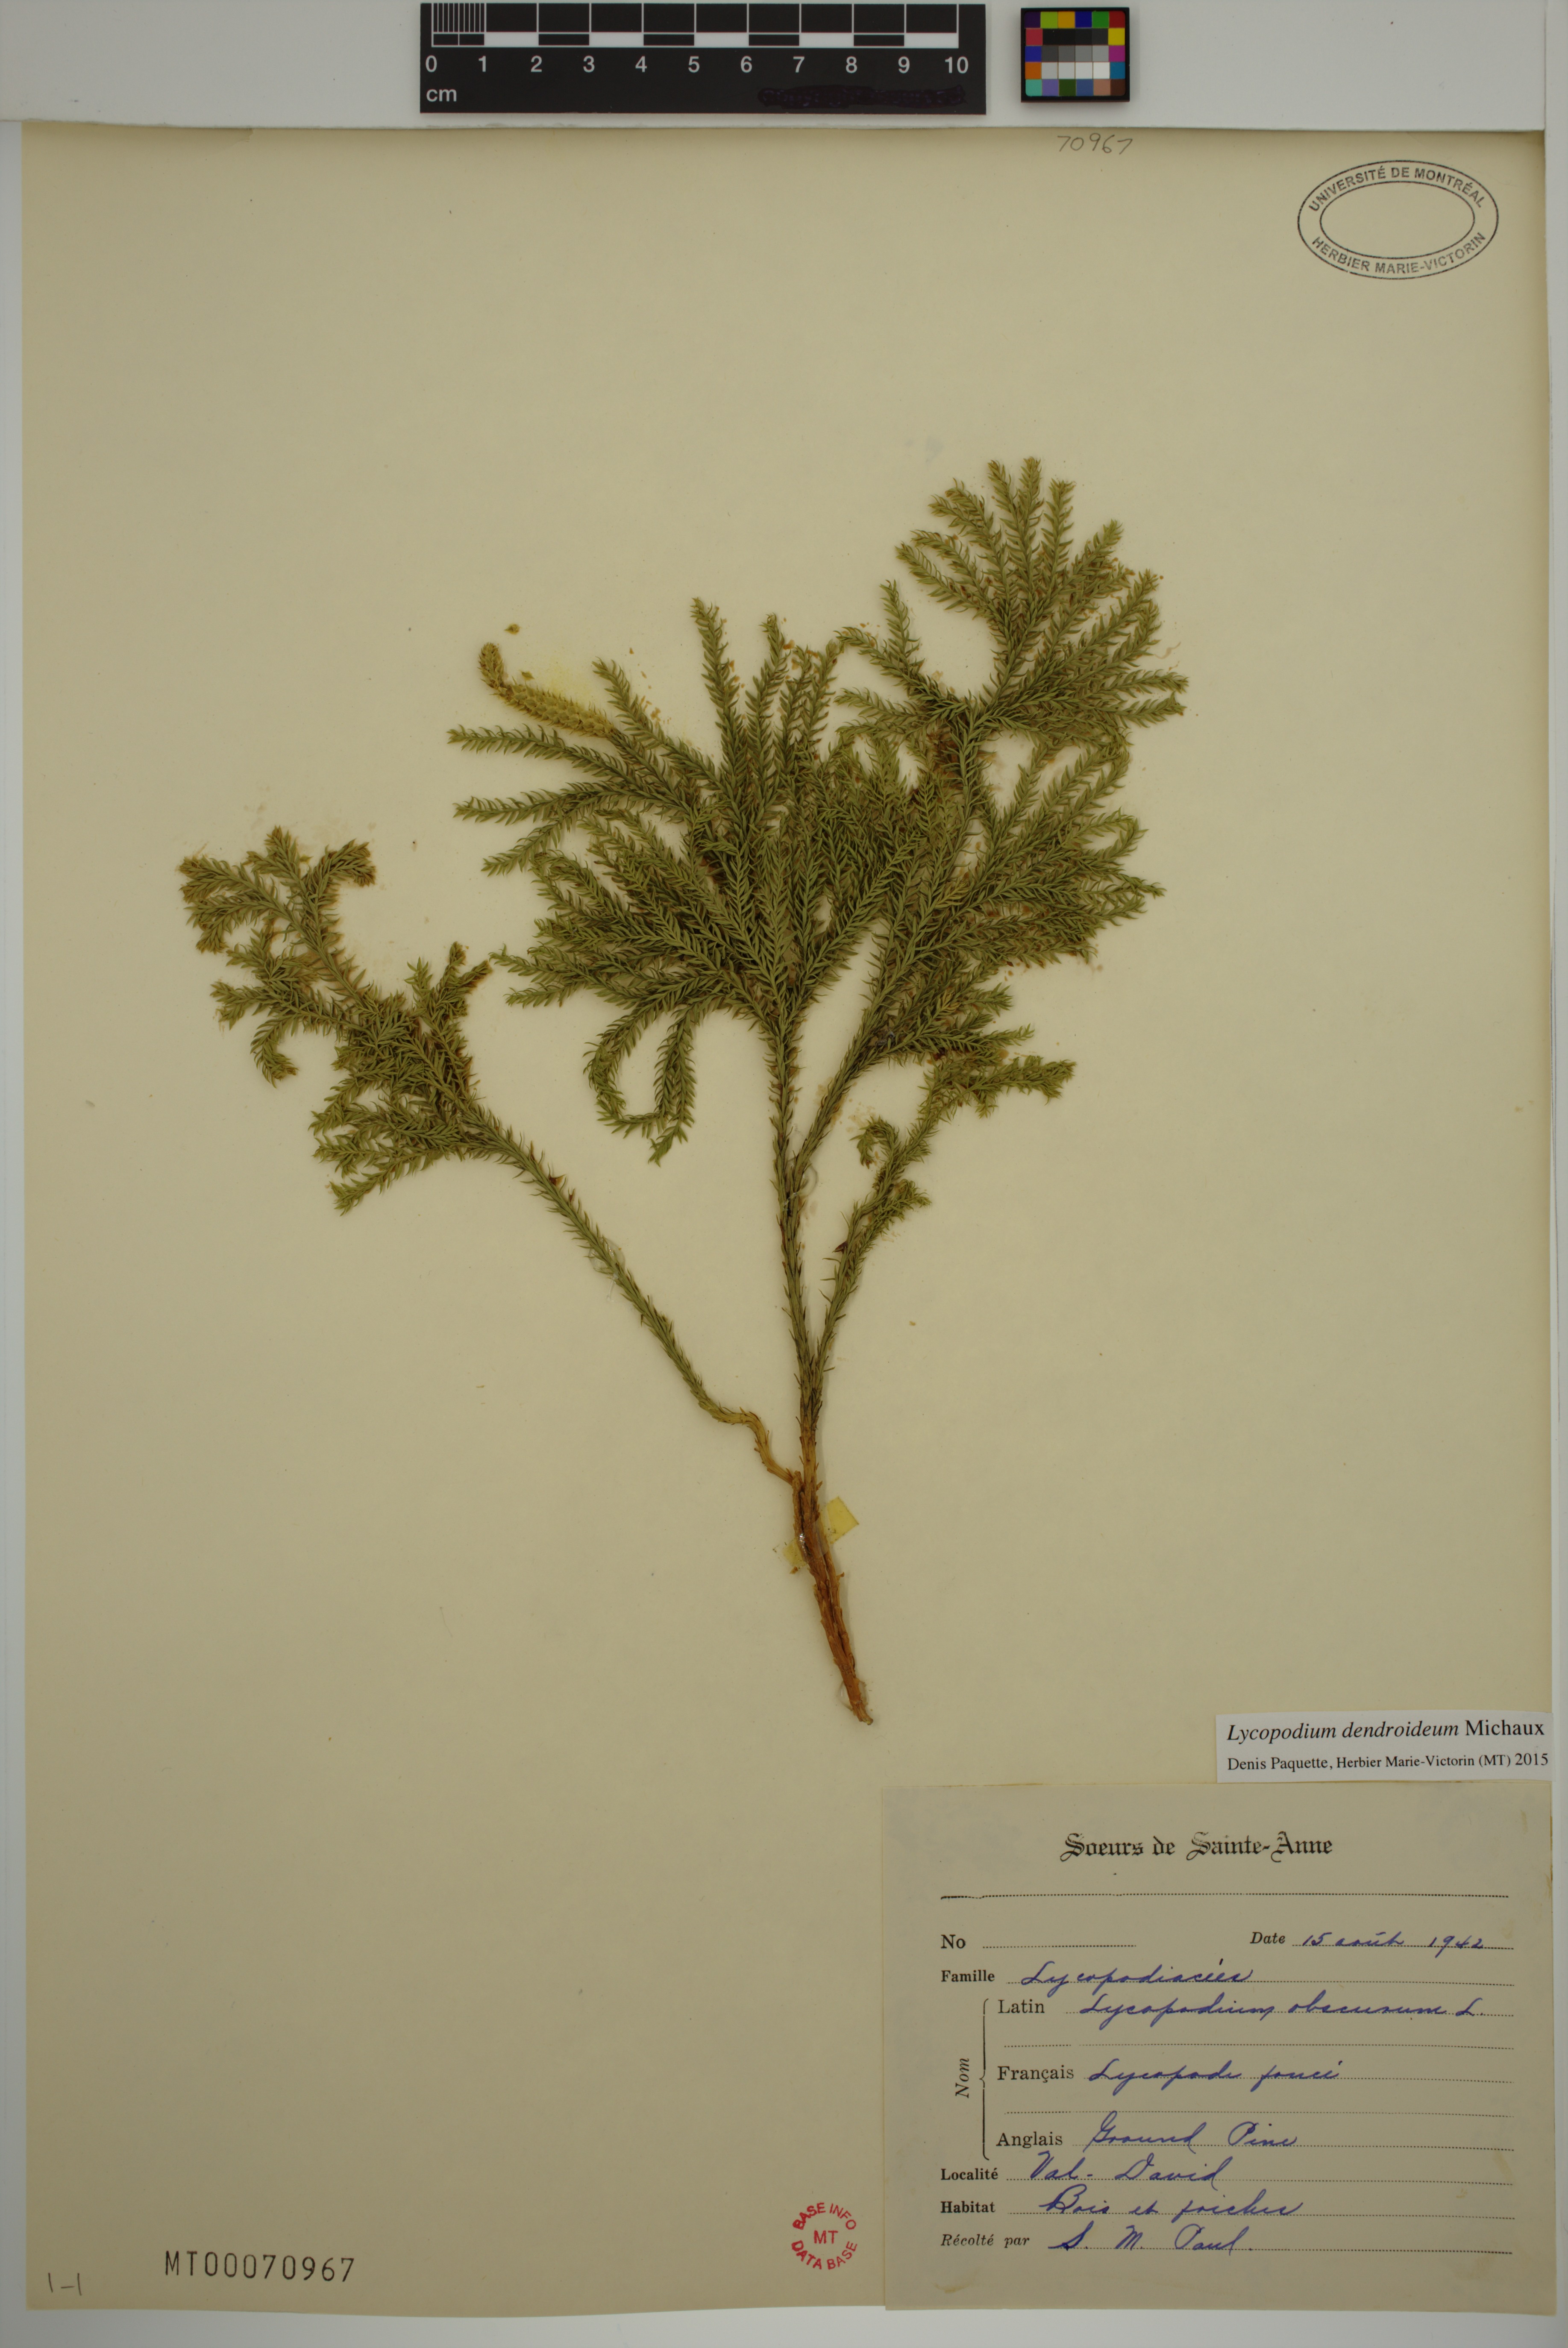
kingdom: Plantae
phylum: Tracheophyta
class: Lycopodiopsida
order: Lycopodiales
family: Lycopodiaceae
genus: Dendrolycopodium
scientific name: Dendrolycopodium dendroideum
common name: Northern tree-clubmoss
